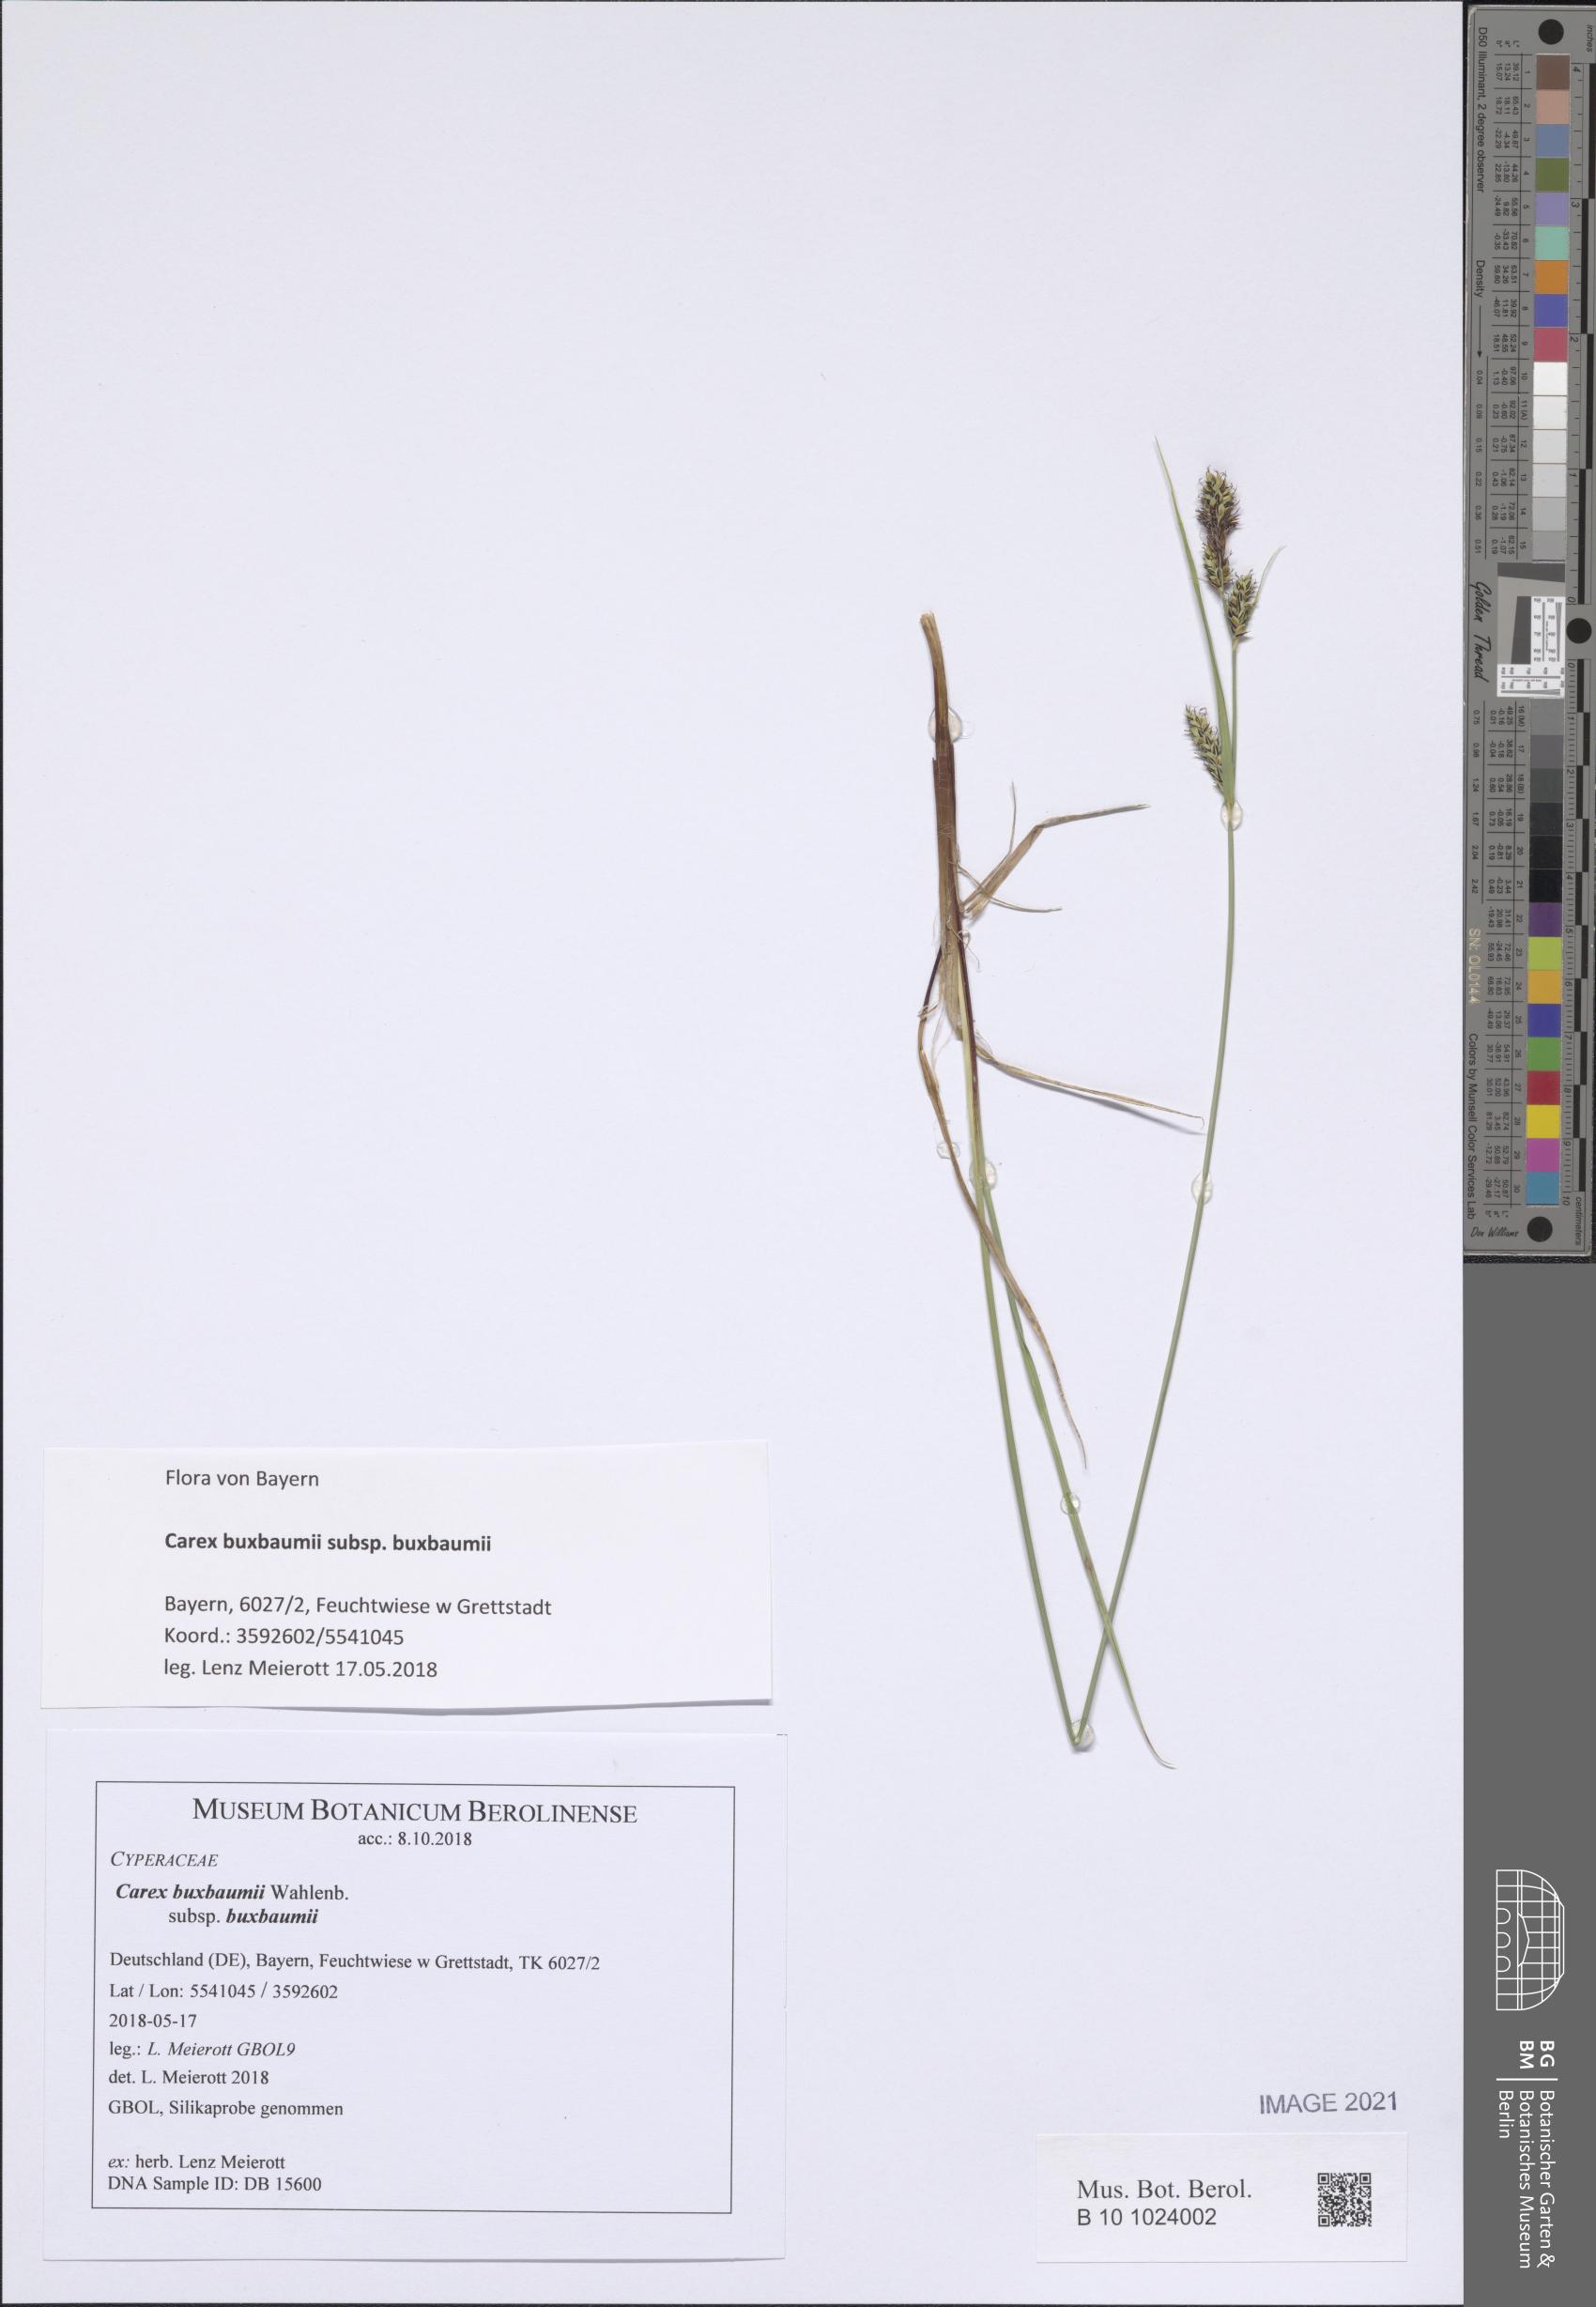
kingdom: Plantae
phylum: Tracheophyta
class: Liliopsida
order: Poales
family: Cyperaceae
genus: Carex
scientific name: Carex buxbaumii
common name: Club sedge
